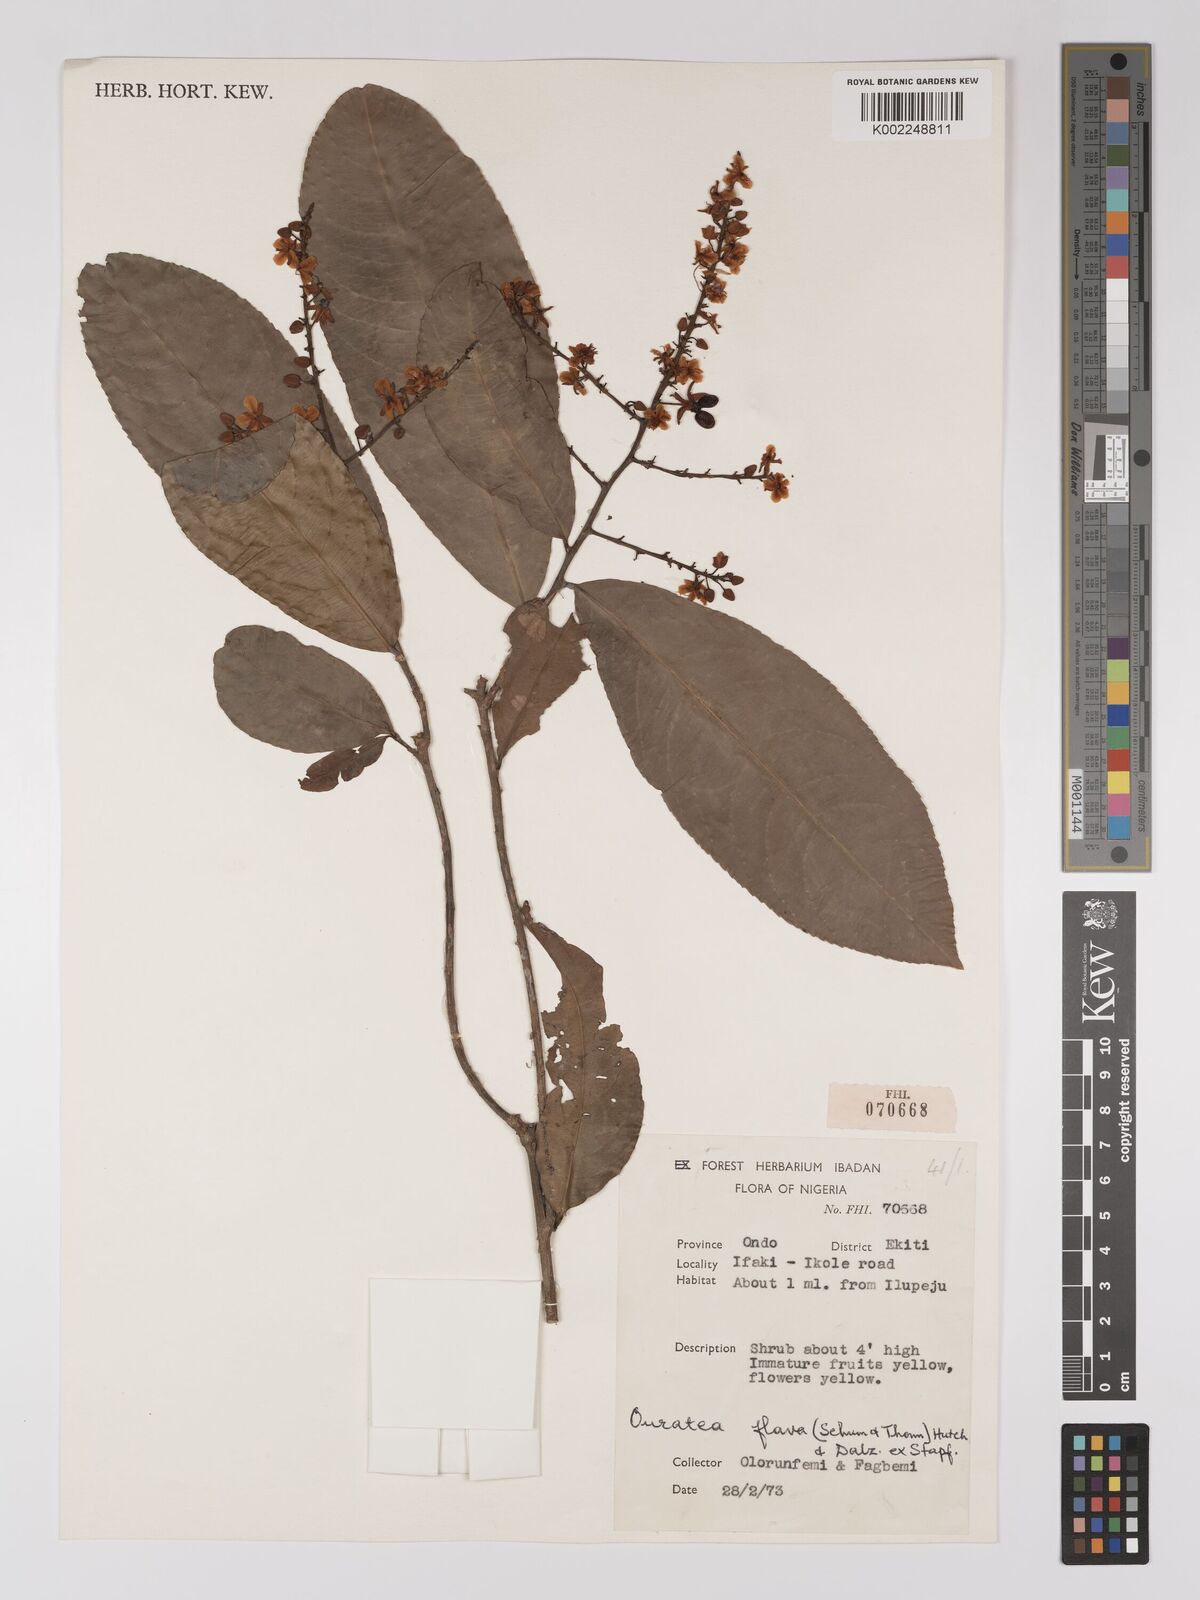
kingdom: Plantae
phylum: Tracheophyta
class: Magnoliopsida
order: Malpighiales
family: Ochnaceae
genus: Campylospermum
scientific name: Campylospermum flavum
